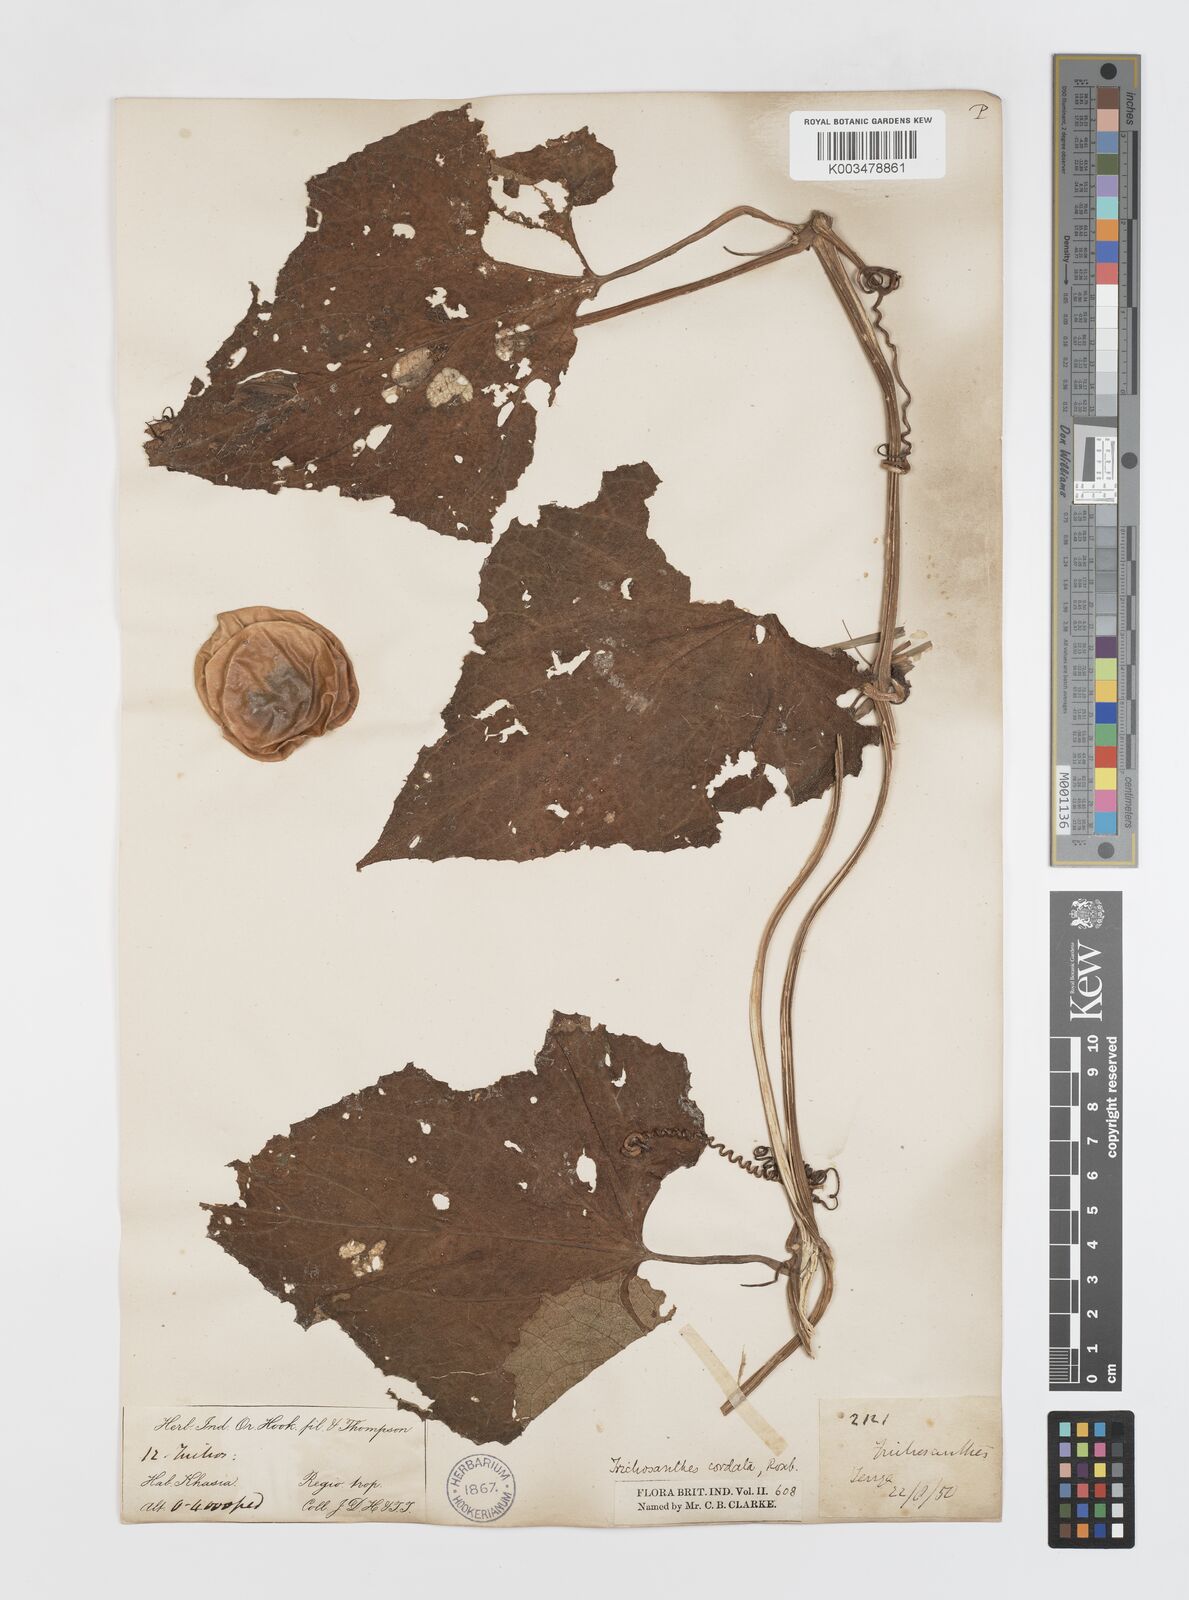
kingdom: Plantae
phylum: Tracheophyta
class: Magnoliopsida
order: Cucurbitales
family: Cucurbitaceae
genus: Trichosanthes
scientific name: Trichosanthes cordata
